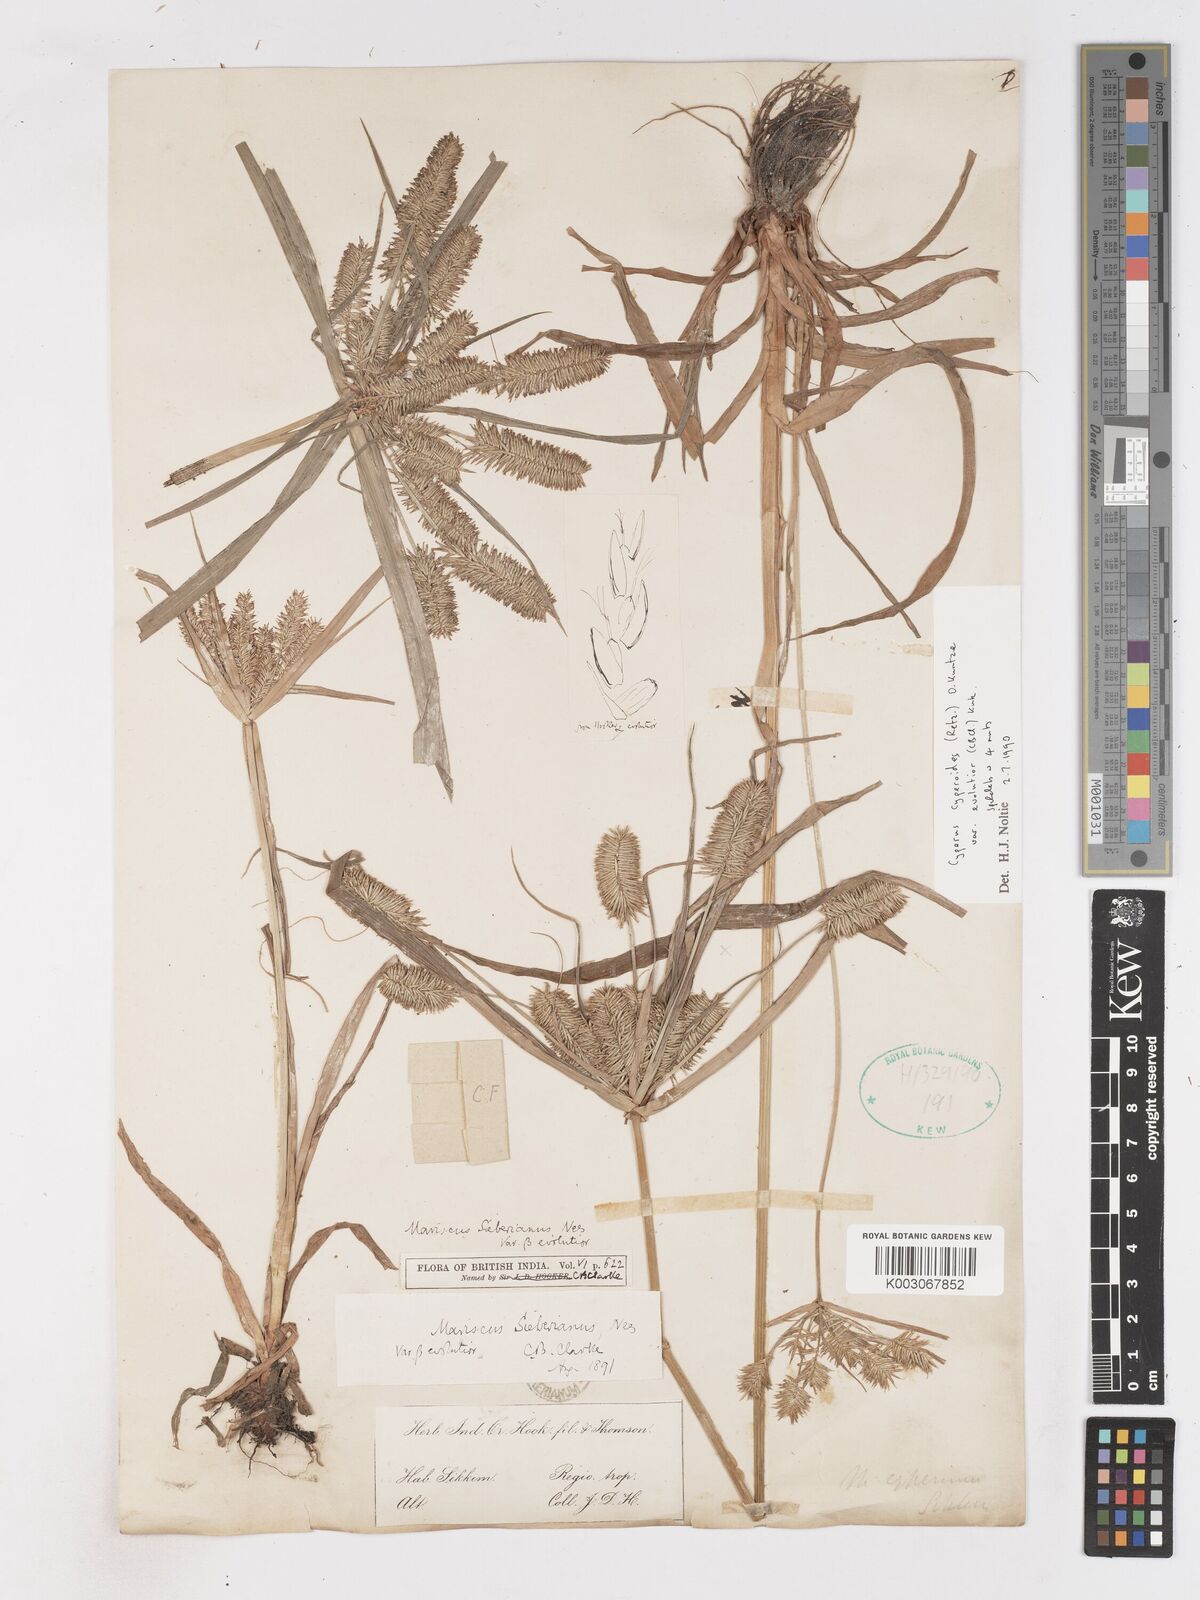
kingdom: Plantae
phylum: Tracheophyta
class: Liliopsida
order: Poales
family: Cyperaceae
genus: Cyperus
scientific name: Cyperus cyperoides
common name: Pacific island flat sedge
